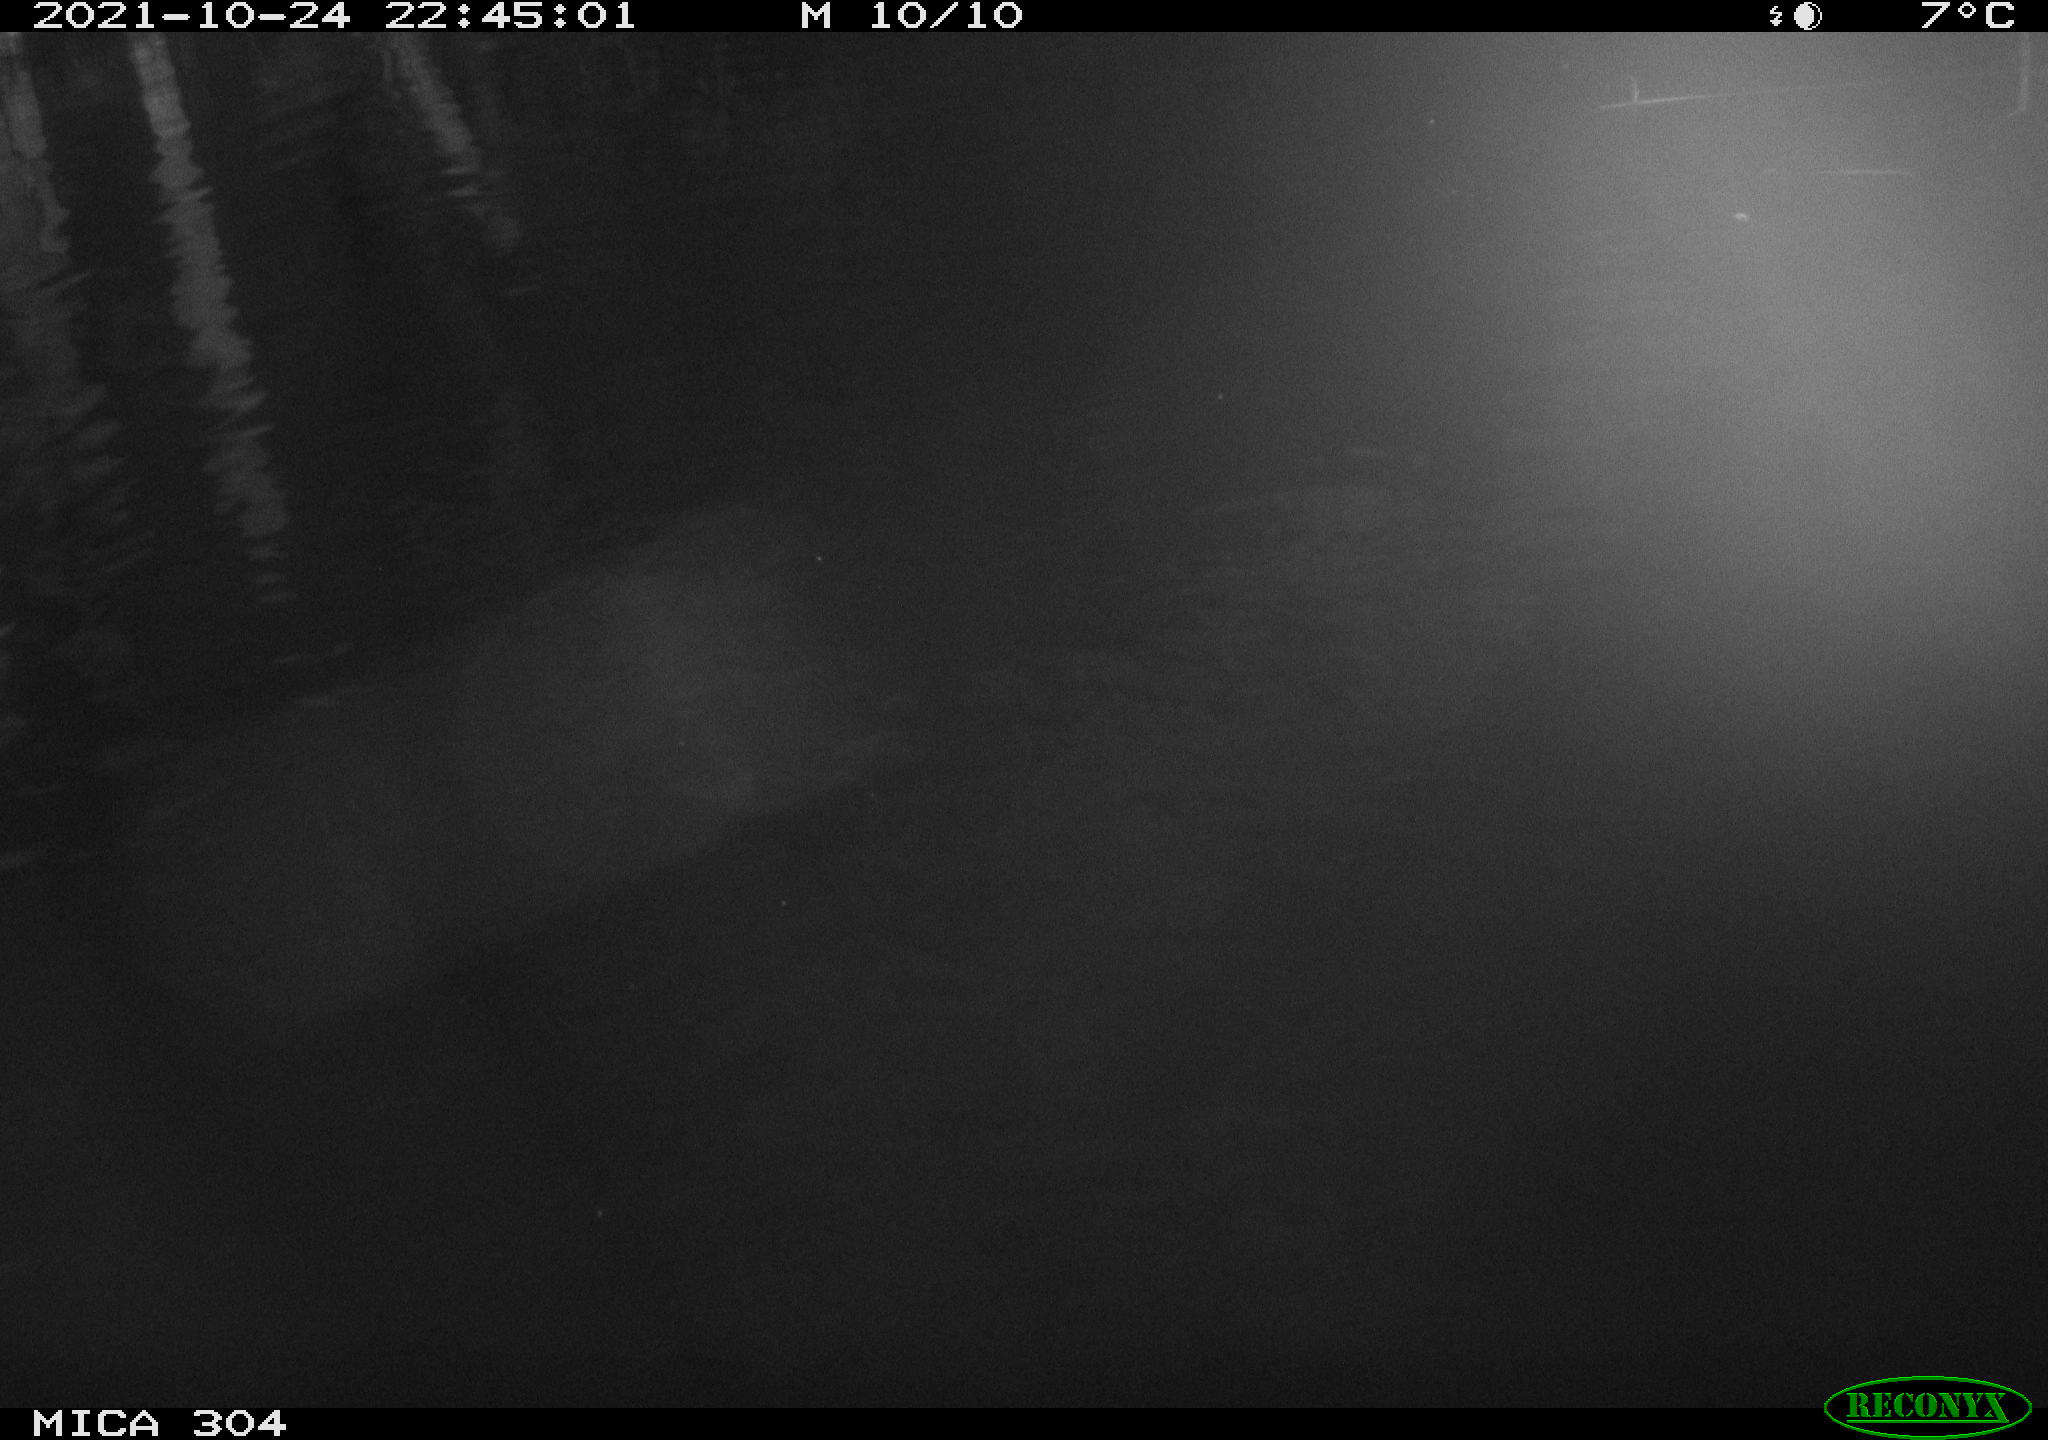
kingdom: Animalia
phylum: Chordata
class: Mammalia
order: Rodentia
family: Cricetidae
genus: Ondatra
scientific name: Ondatra zibethicus
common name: Muskrat
